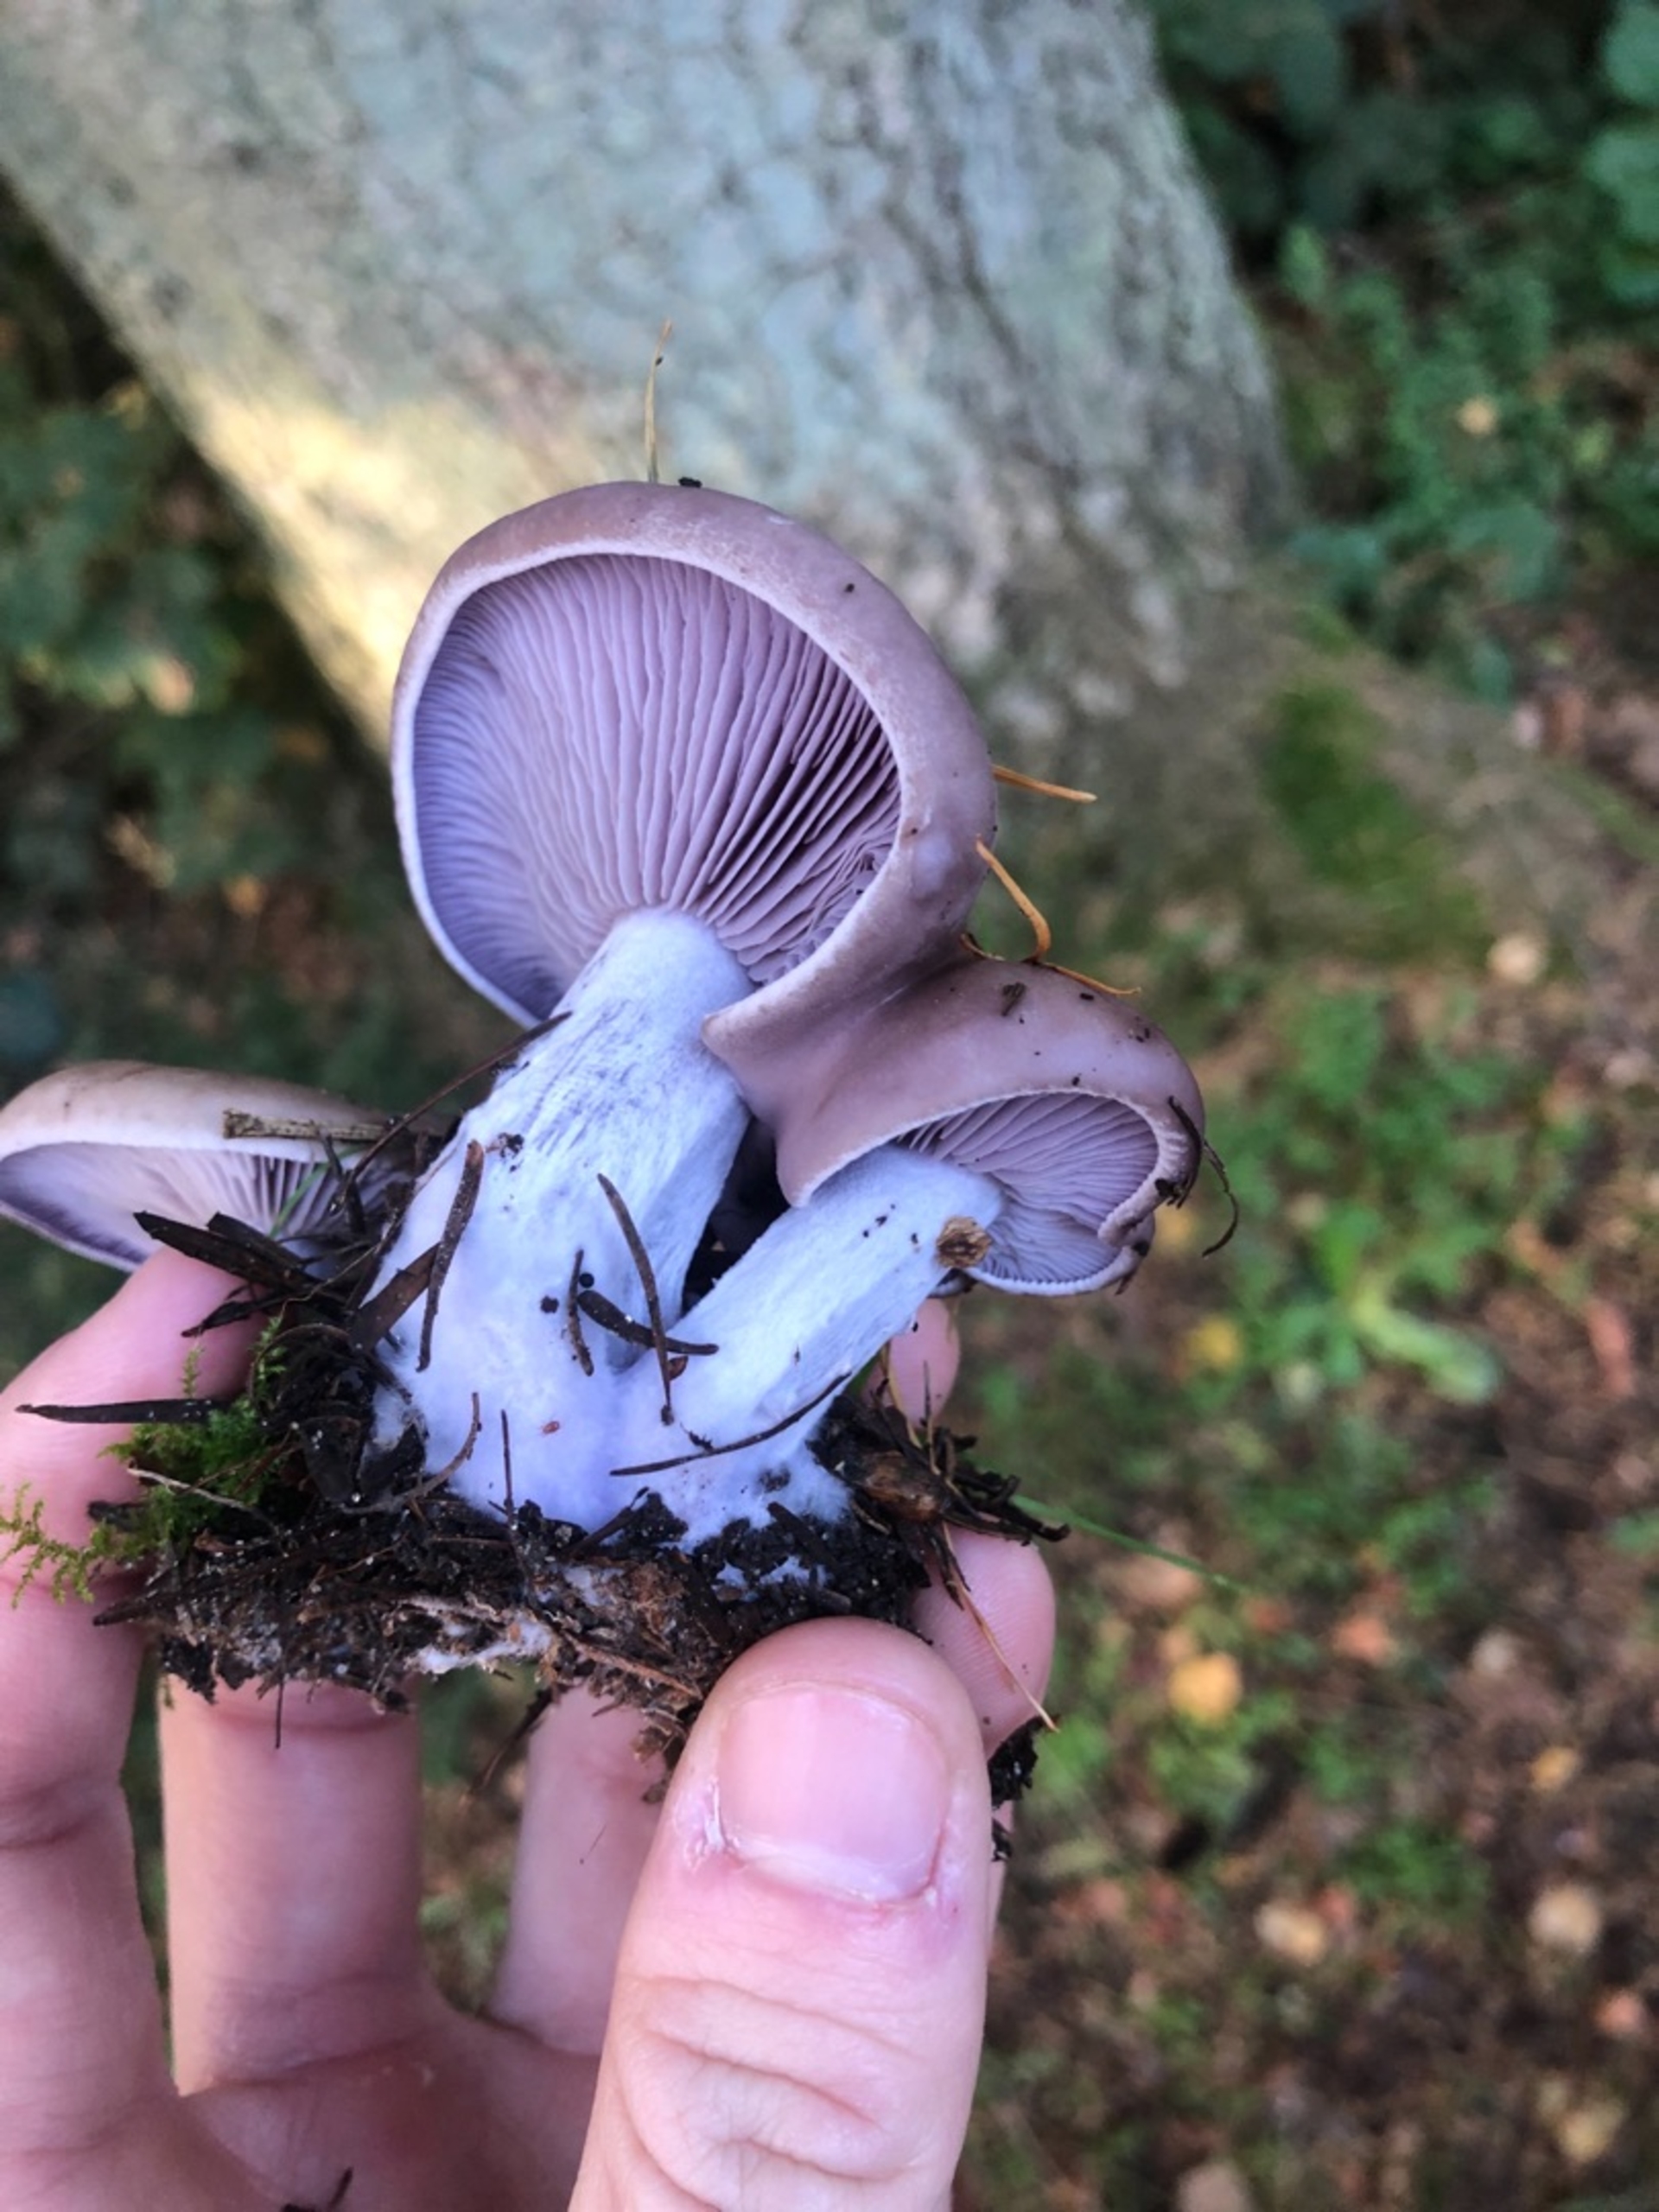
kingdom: Fungi
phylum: Basidiomycota
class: Agaricomycetes
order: Agaricales
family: Tricholomataceae
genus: Lepista
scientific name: Lepista nuda
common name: Violet hekseringshat
